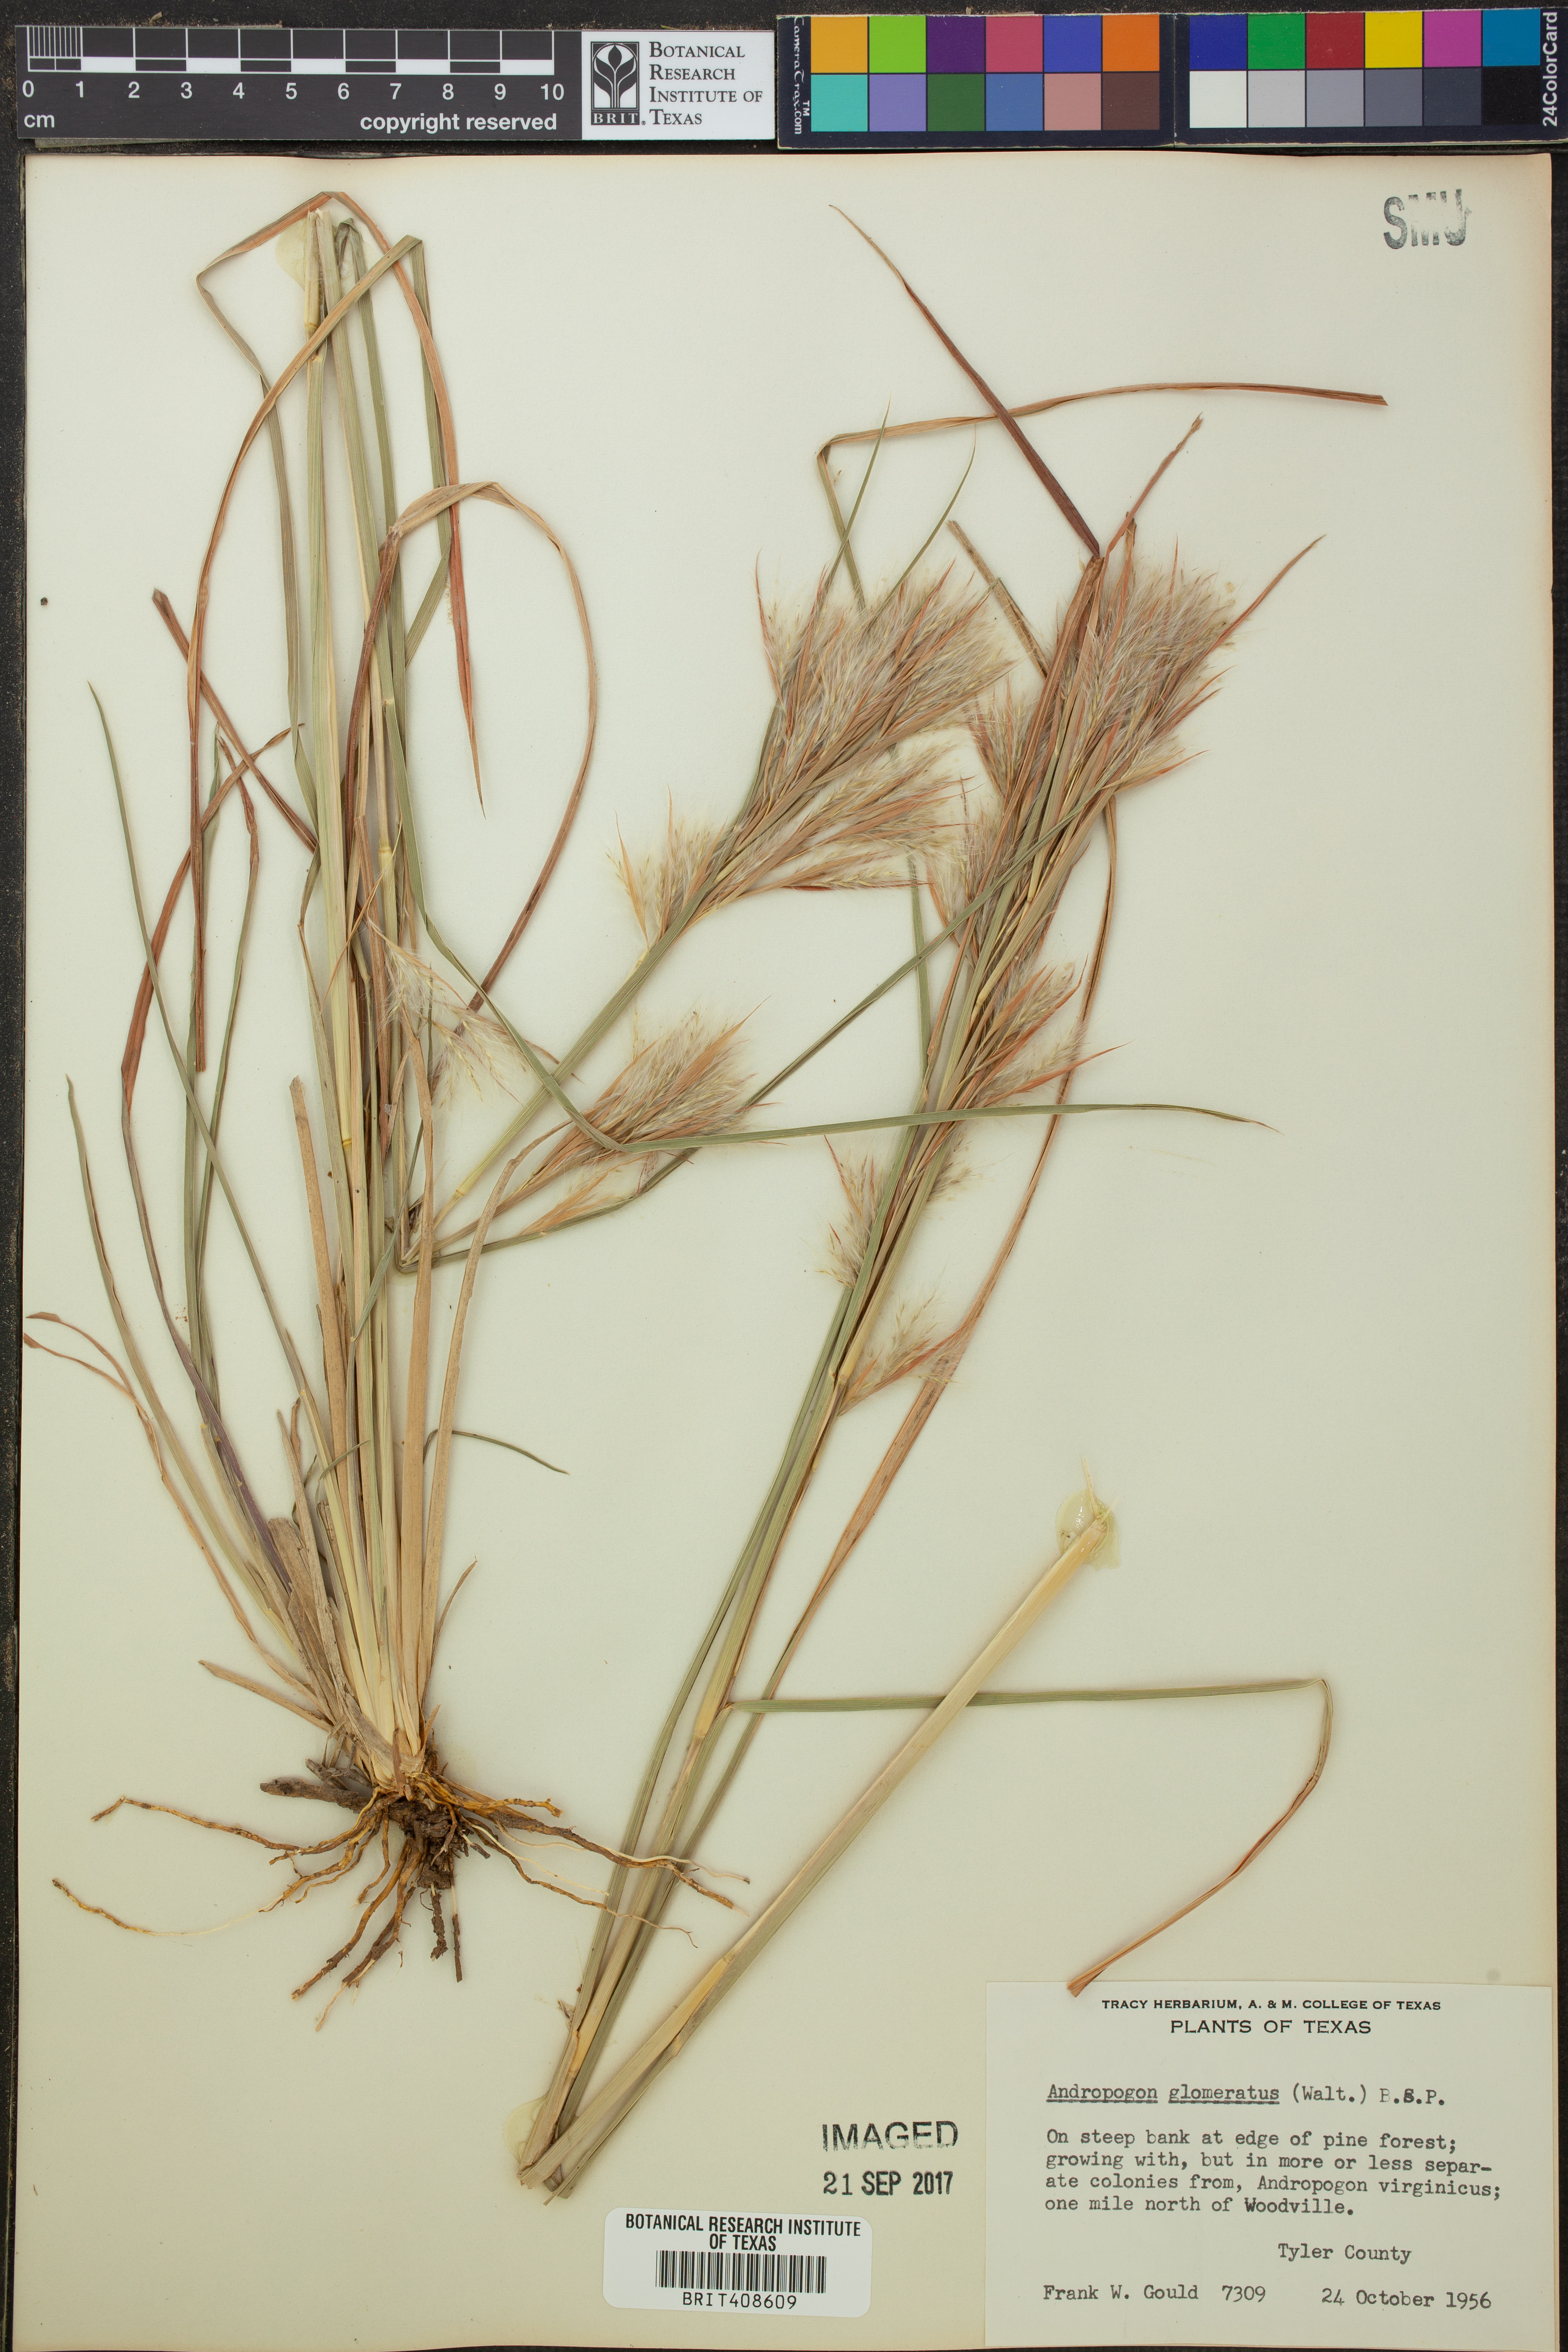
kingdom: Plantae
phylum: Tracheophyta
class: Liliopsida
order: Poales
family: Poaceae
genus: Andropogon
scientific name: Andropogon glomeratus
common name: Bushy beard grass
